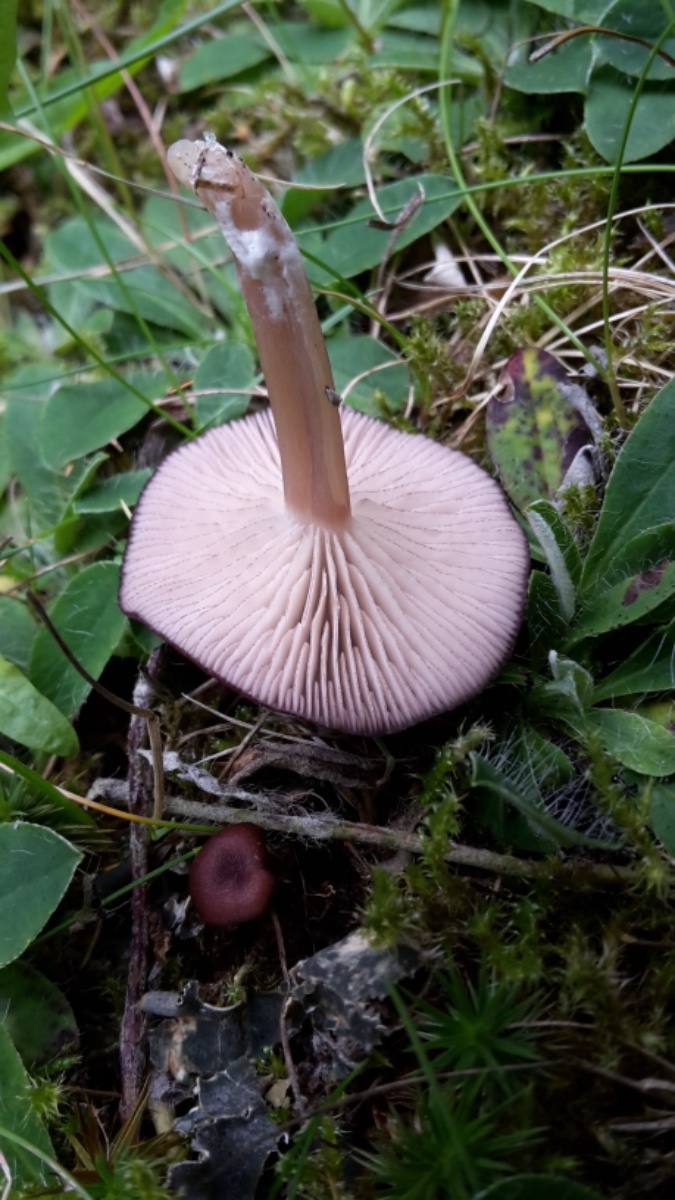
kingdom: Fungi
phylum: Basidiomycota
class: Agaricomycetes
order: Agaricales
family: Entolomataceae
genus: Entoloma
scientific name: Entoloma
